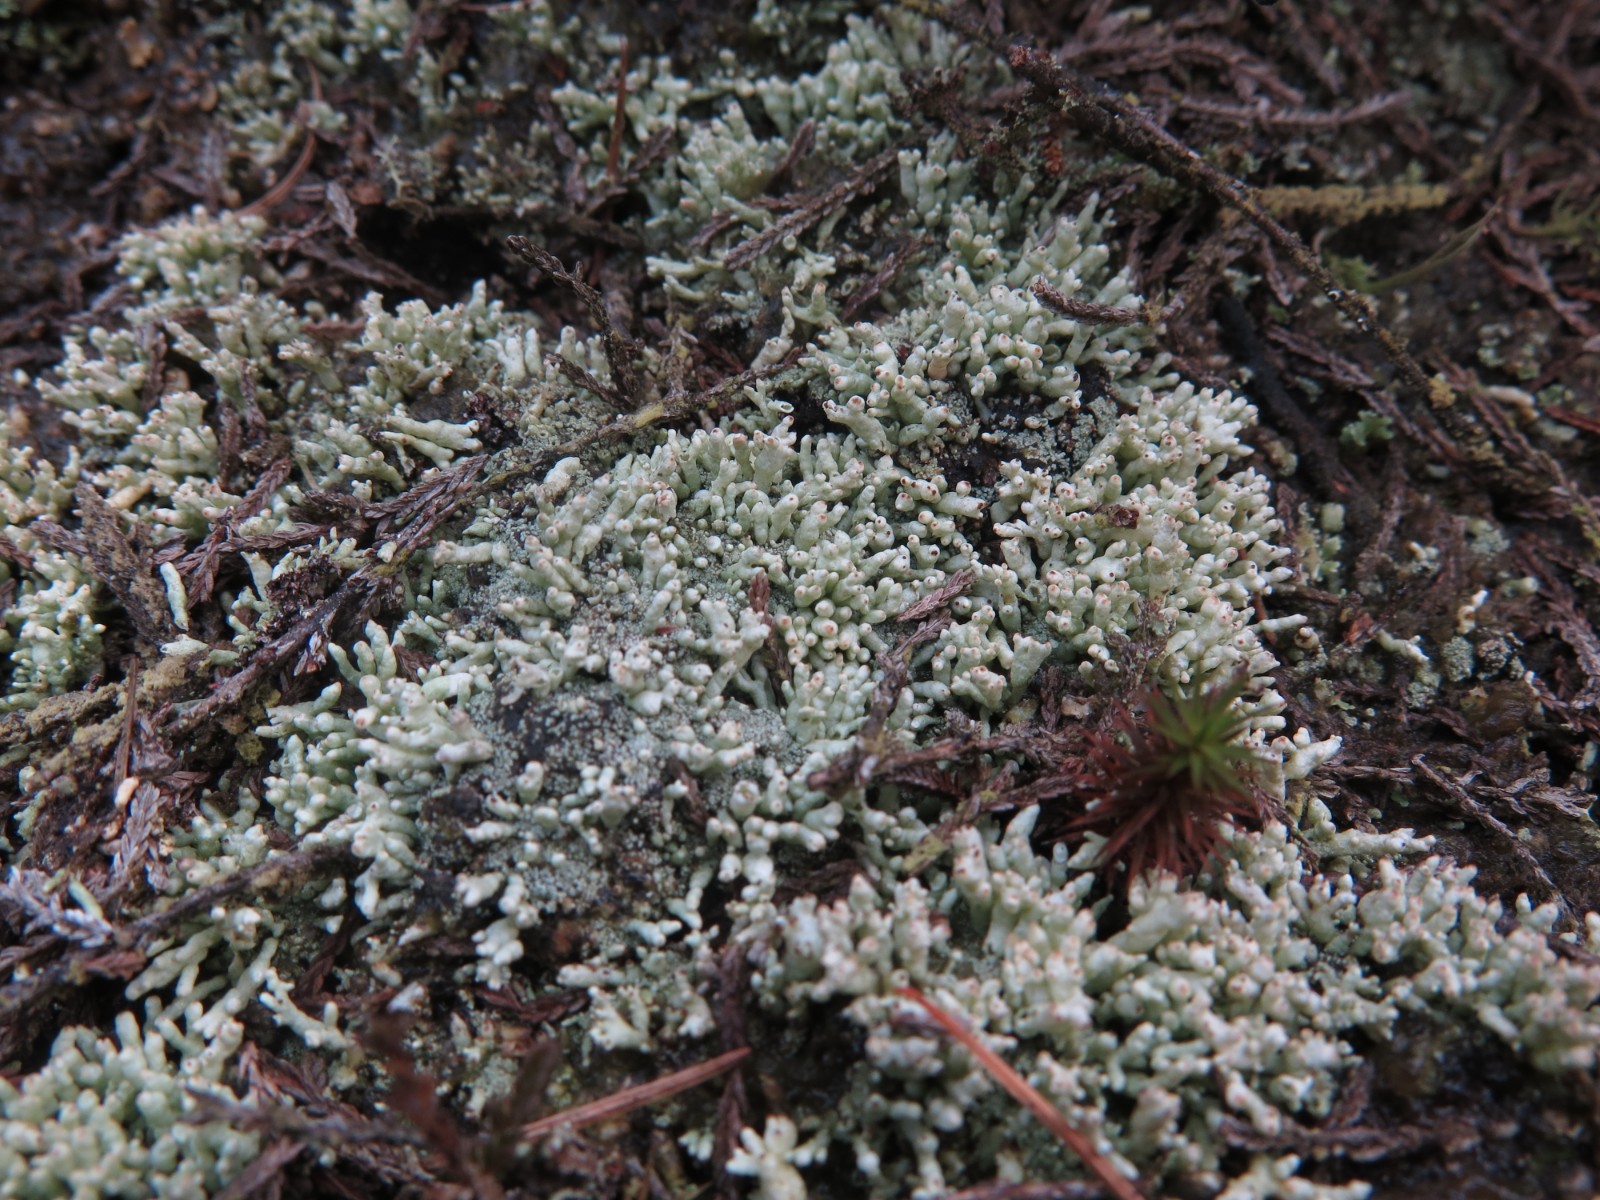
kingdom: Fungi
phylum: Ascomycota
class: Lecanoromycetes
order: Lecanorales
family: Cladoniaceae
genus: Pycnothelia
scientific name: Pycnothelia papillaria
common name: blødvortet knoplav
